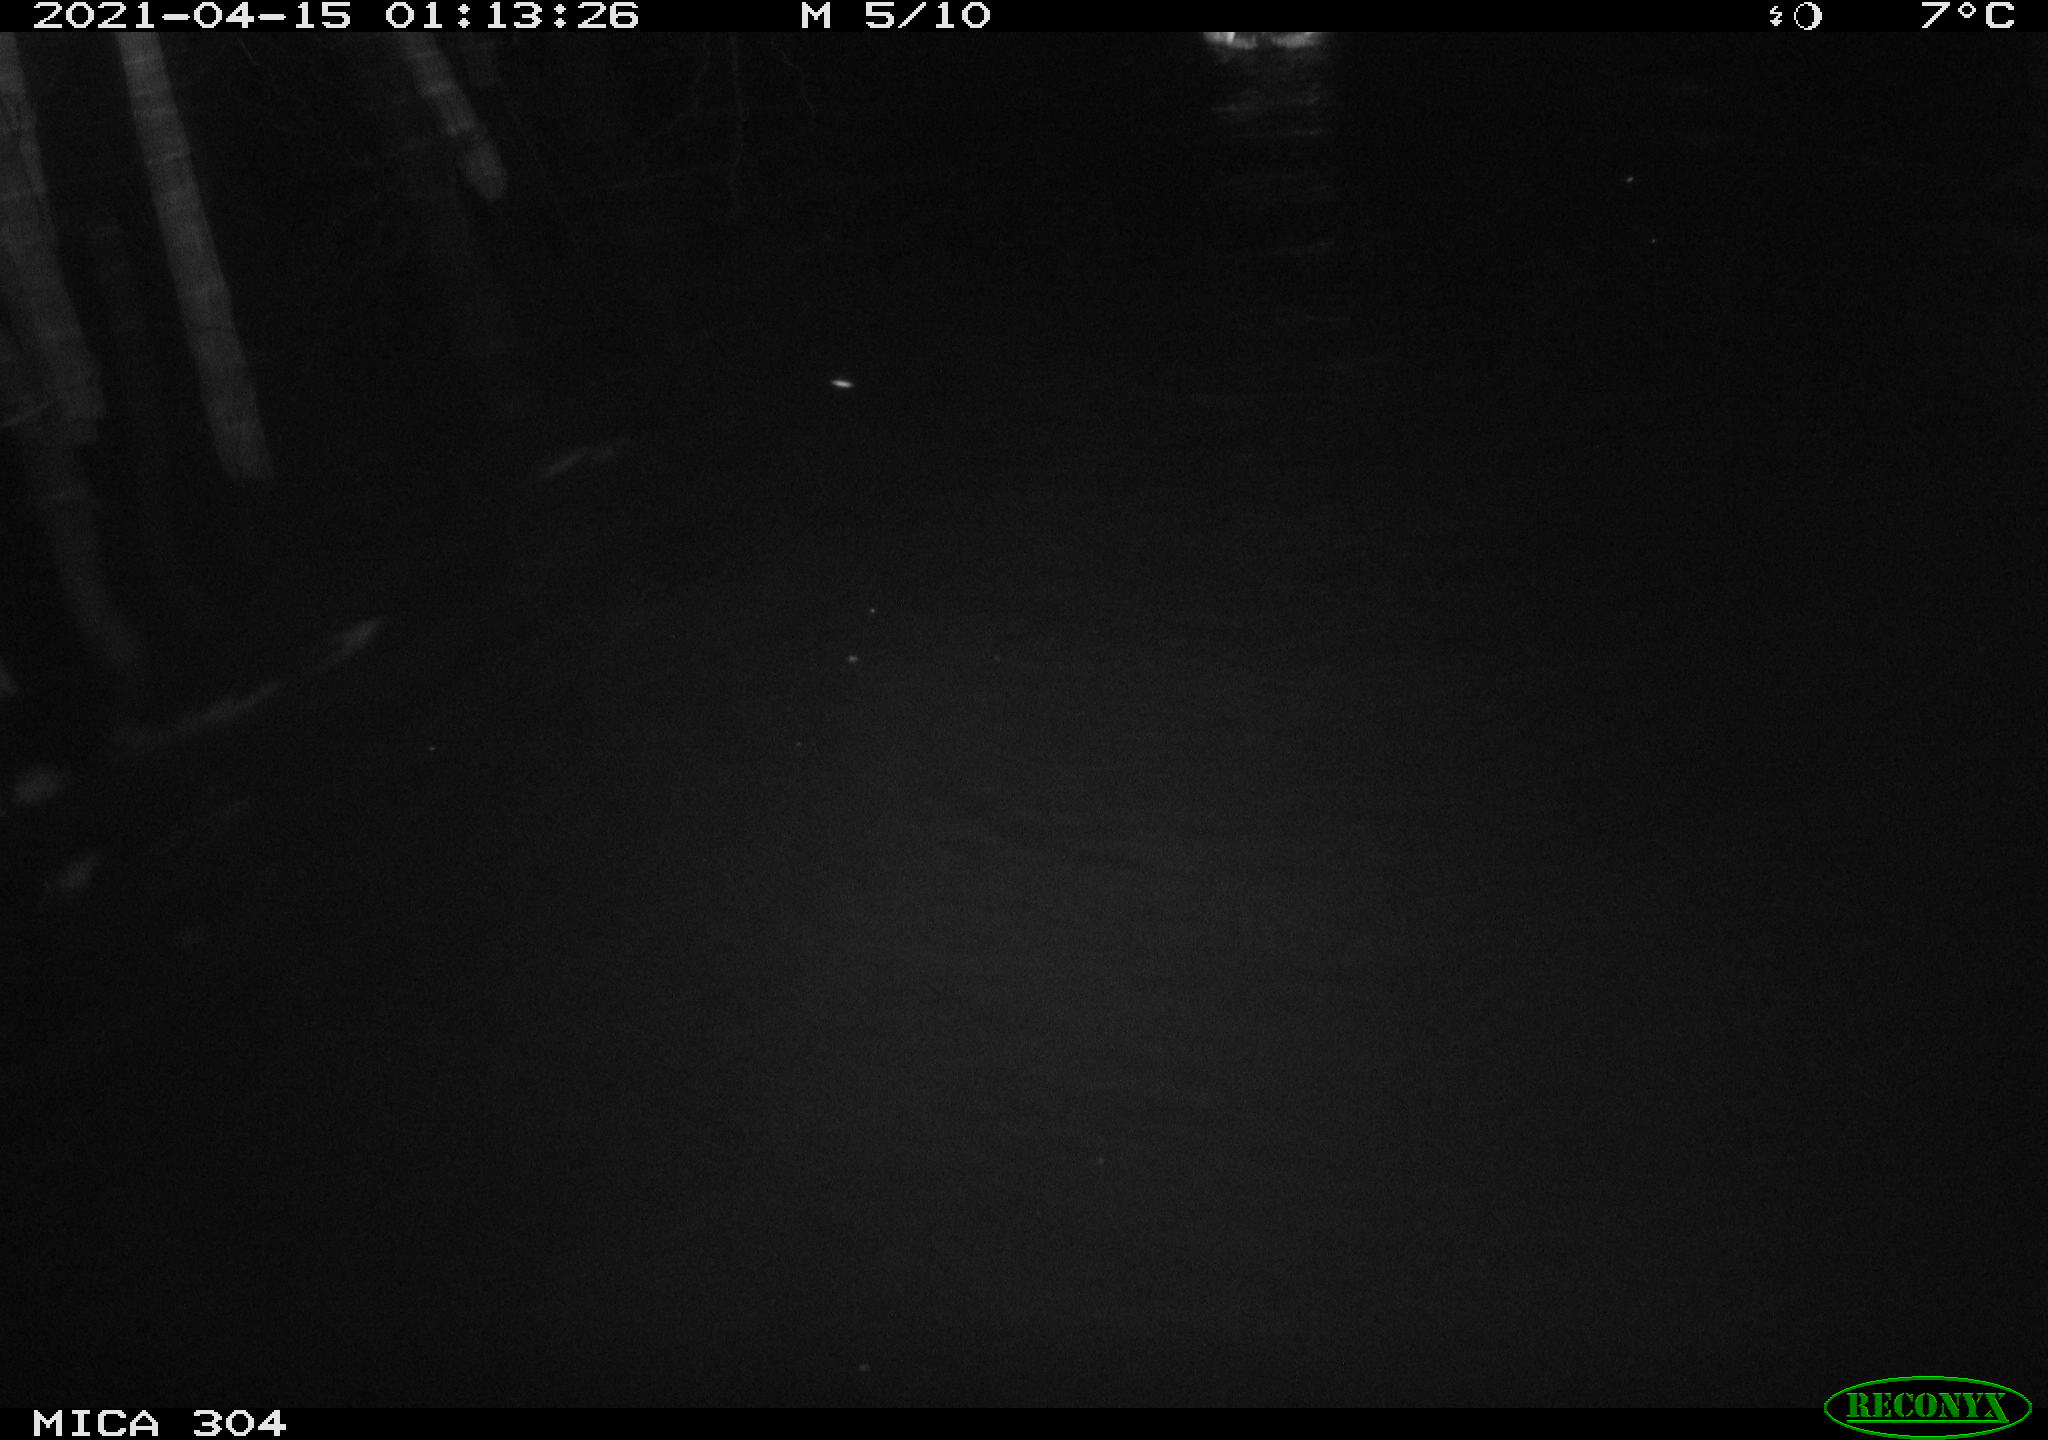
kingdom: Animalia
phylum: Chordata
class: Aves
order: Anseriformes
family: Anatidae
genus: Anas
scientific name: Anas
